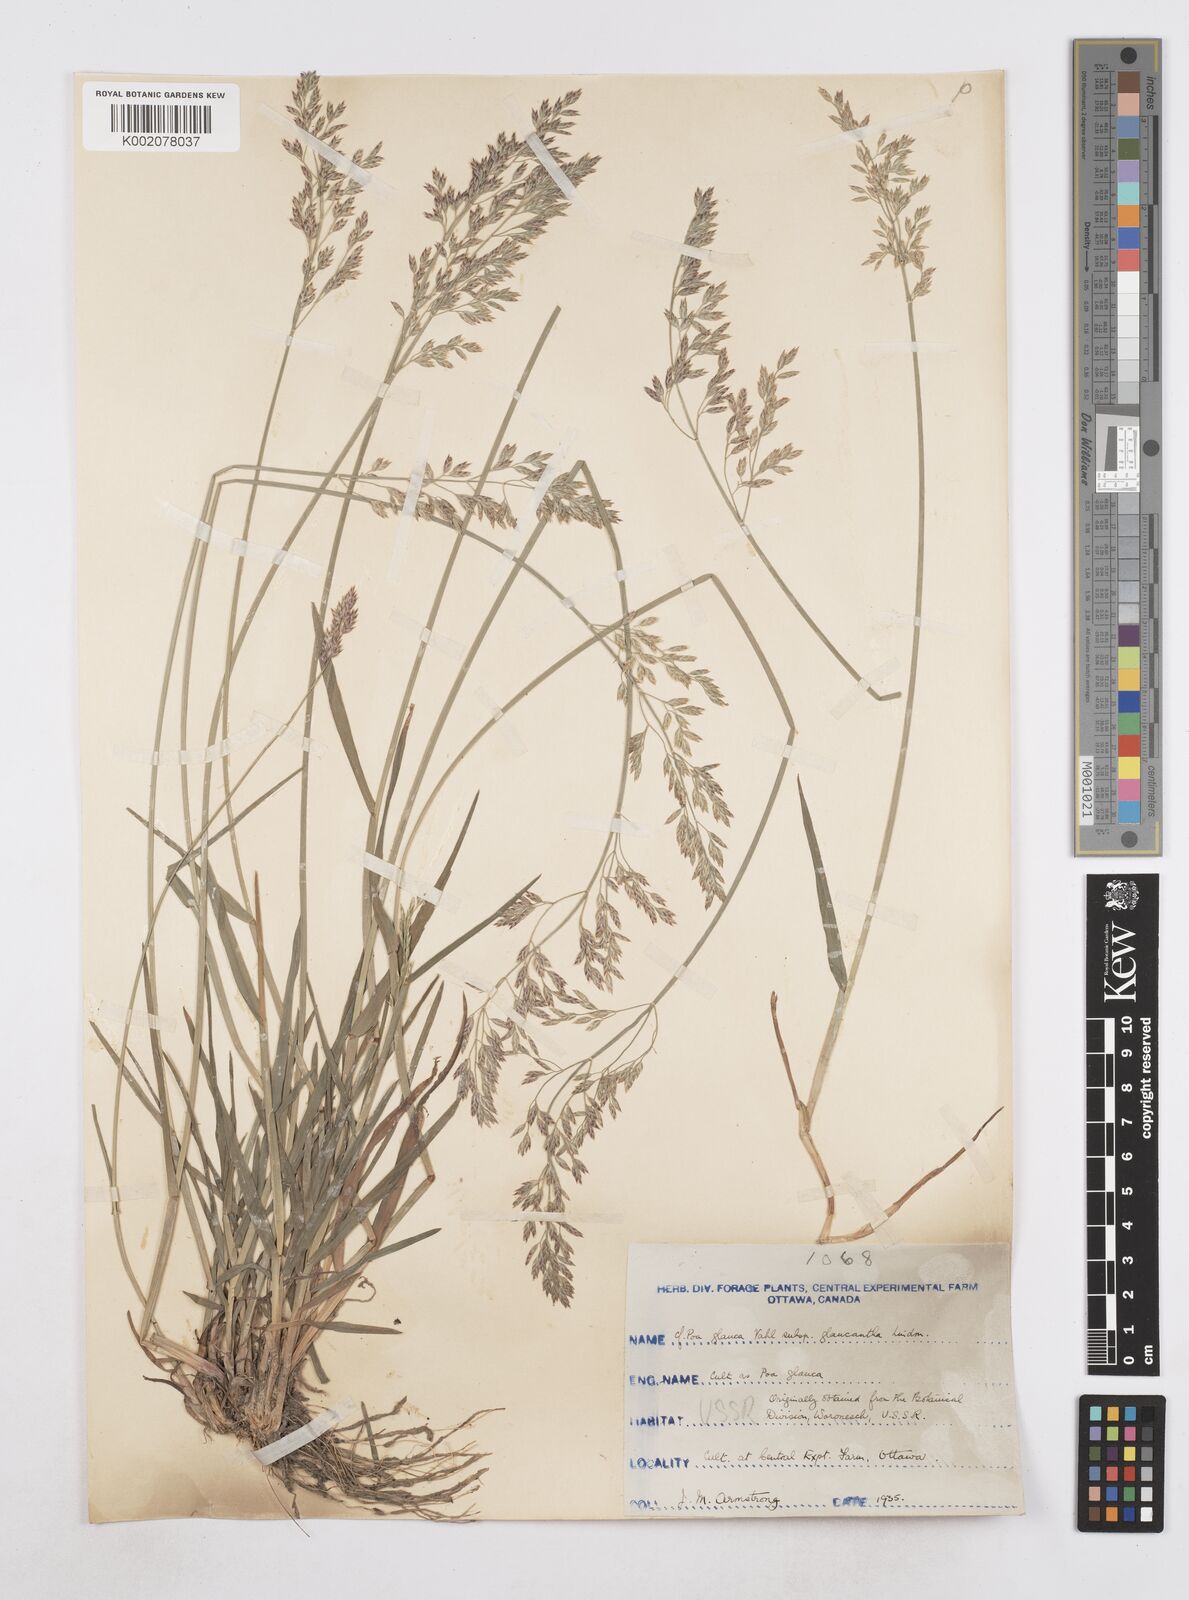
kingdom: Plantae
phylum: Tracheophyta
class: Liliopsida
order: Poales
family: Poaceae
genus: Poa
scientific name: Poa
